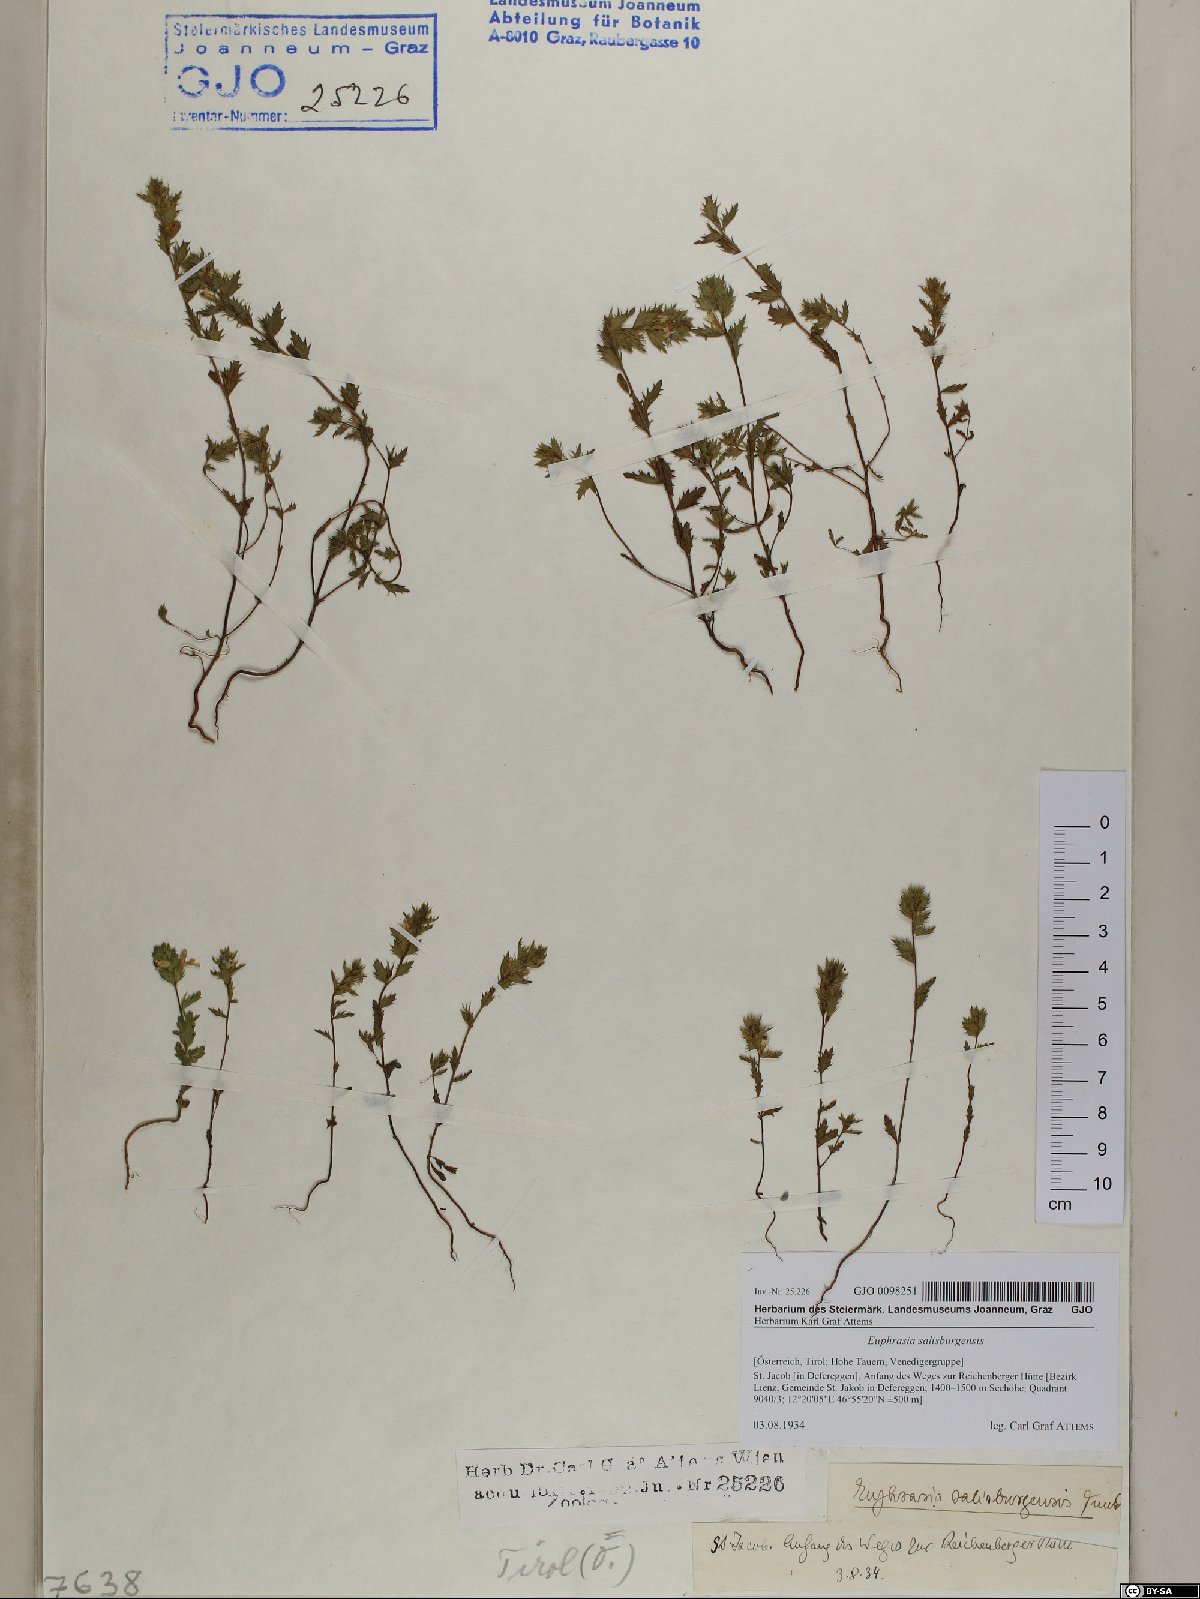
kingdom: Plantae
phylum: Tracheophyta
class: Magnoliopsida
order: Lamiales
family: Orobanchaceae
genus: Euphrasia
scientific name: Euphrasia salisburgensis
